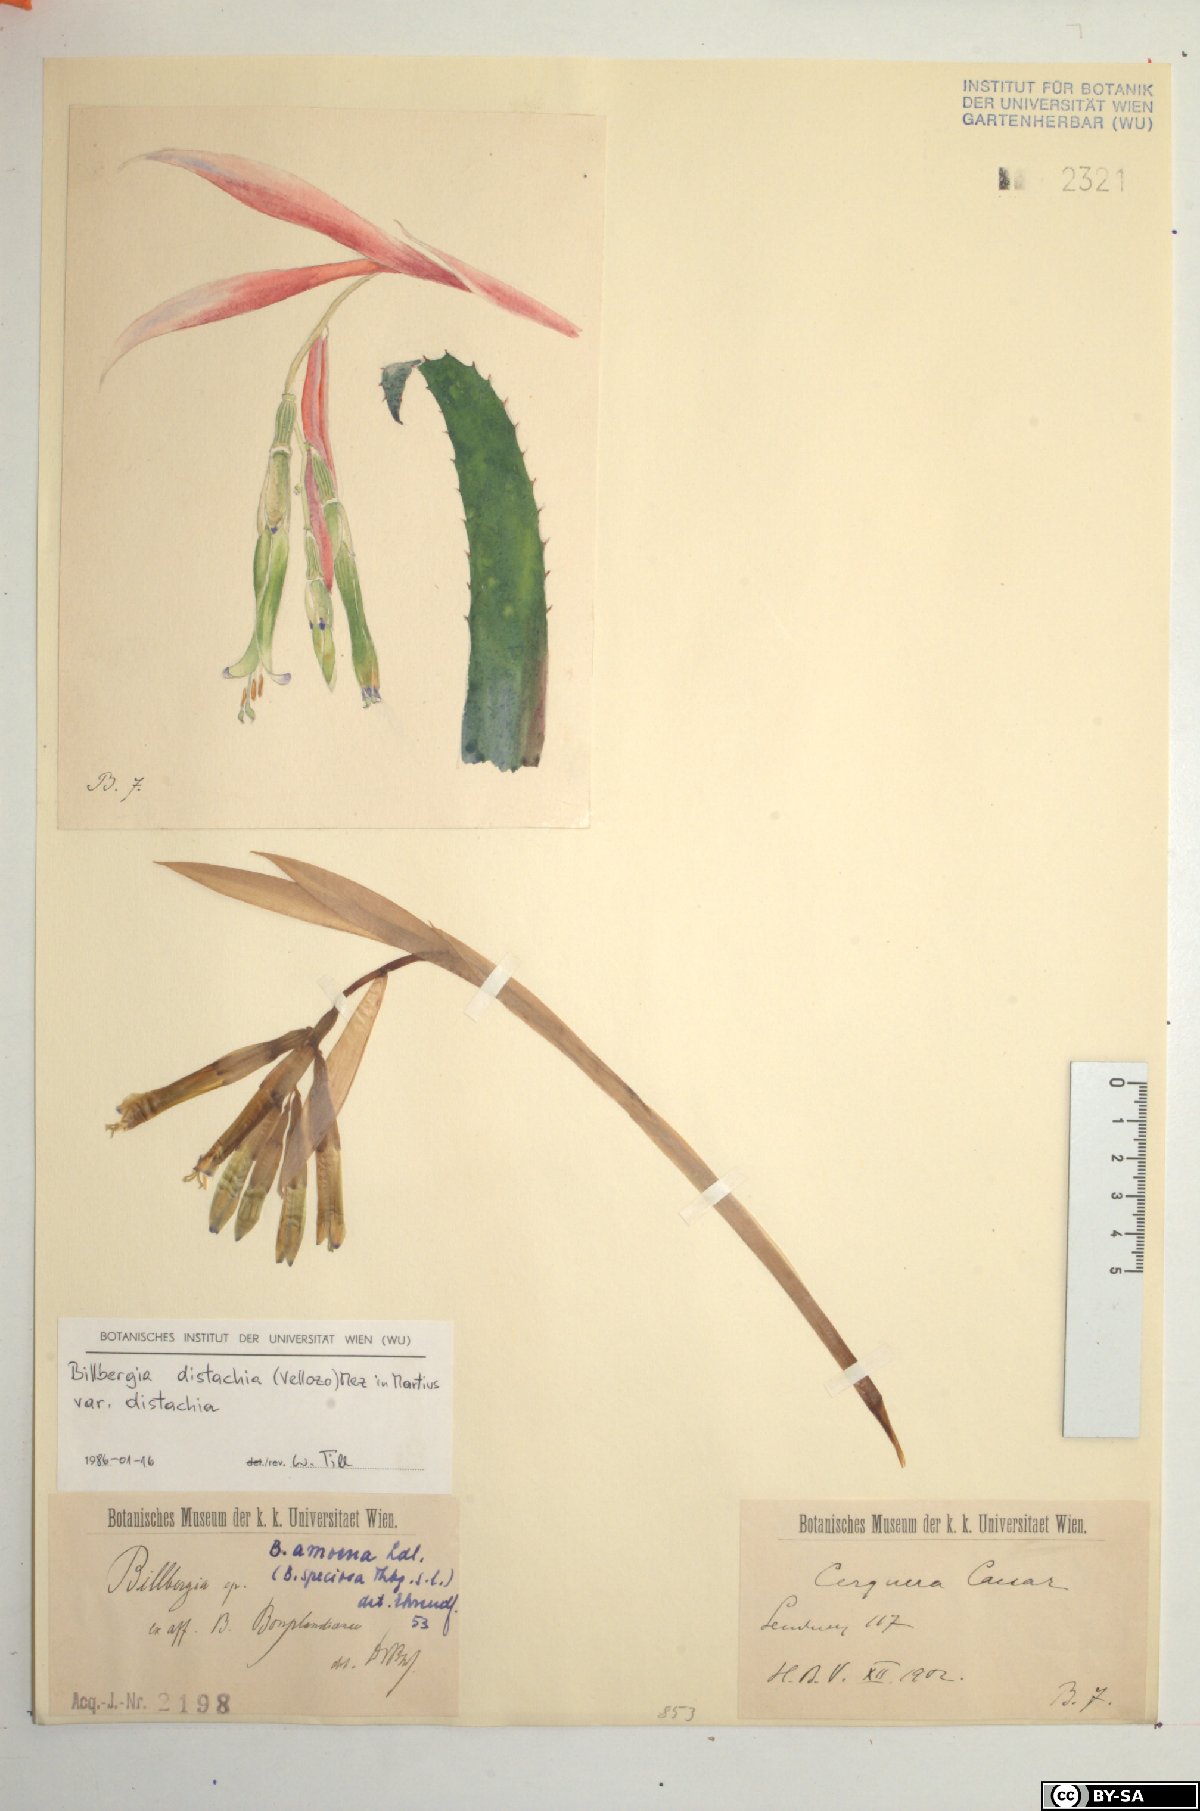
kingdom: Plantae
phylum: Tracheophyta
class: Liliopsida
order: Poales
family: Bromeliaceae
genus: Billbergia
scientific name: Billbergia distachia
